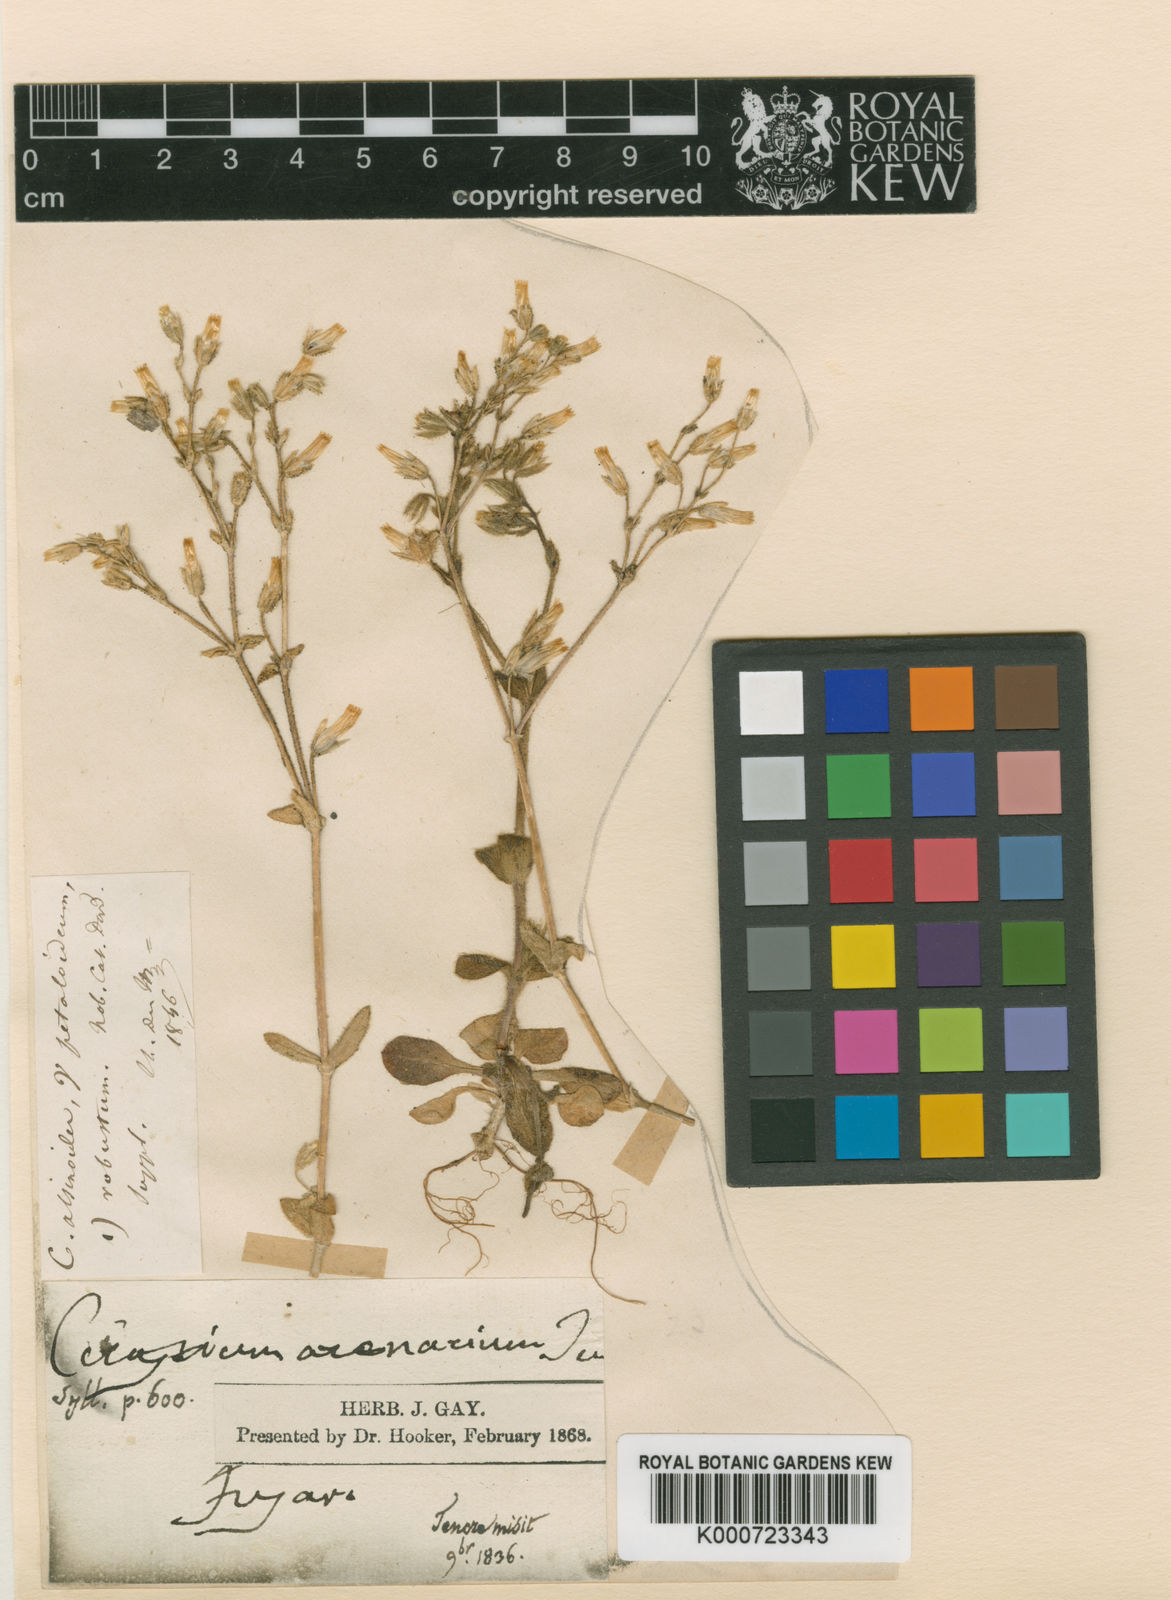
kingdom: Plantae
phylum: Tracheophyta
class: Magnoliopsida
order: Caryophyllales
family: Caryophyllaceae
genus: Cerastium
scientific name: Cerastium semidecandrum
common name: Little mouse-ear
